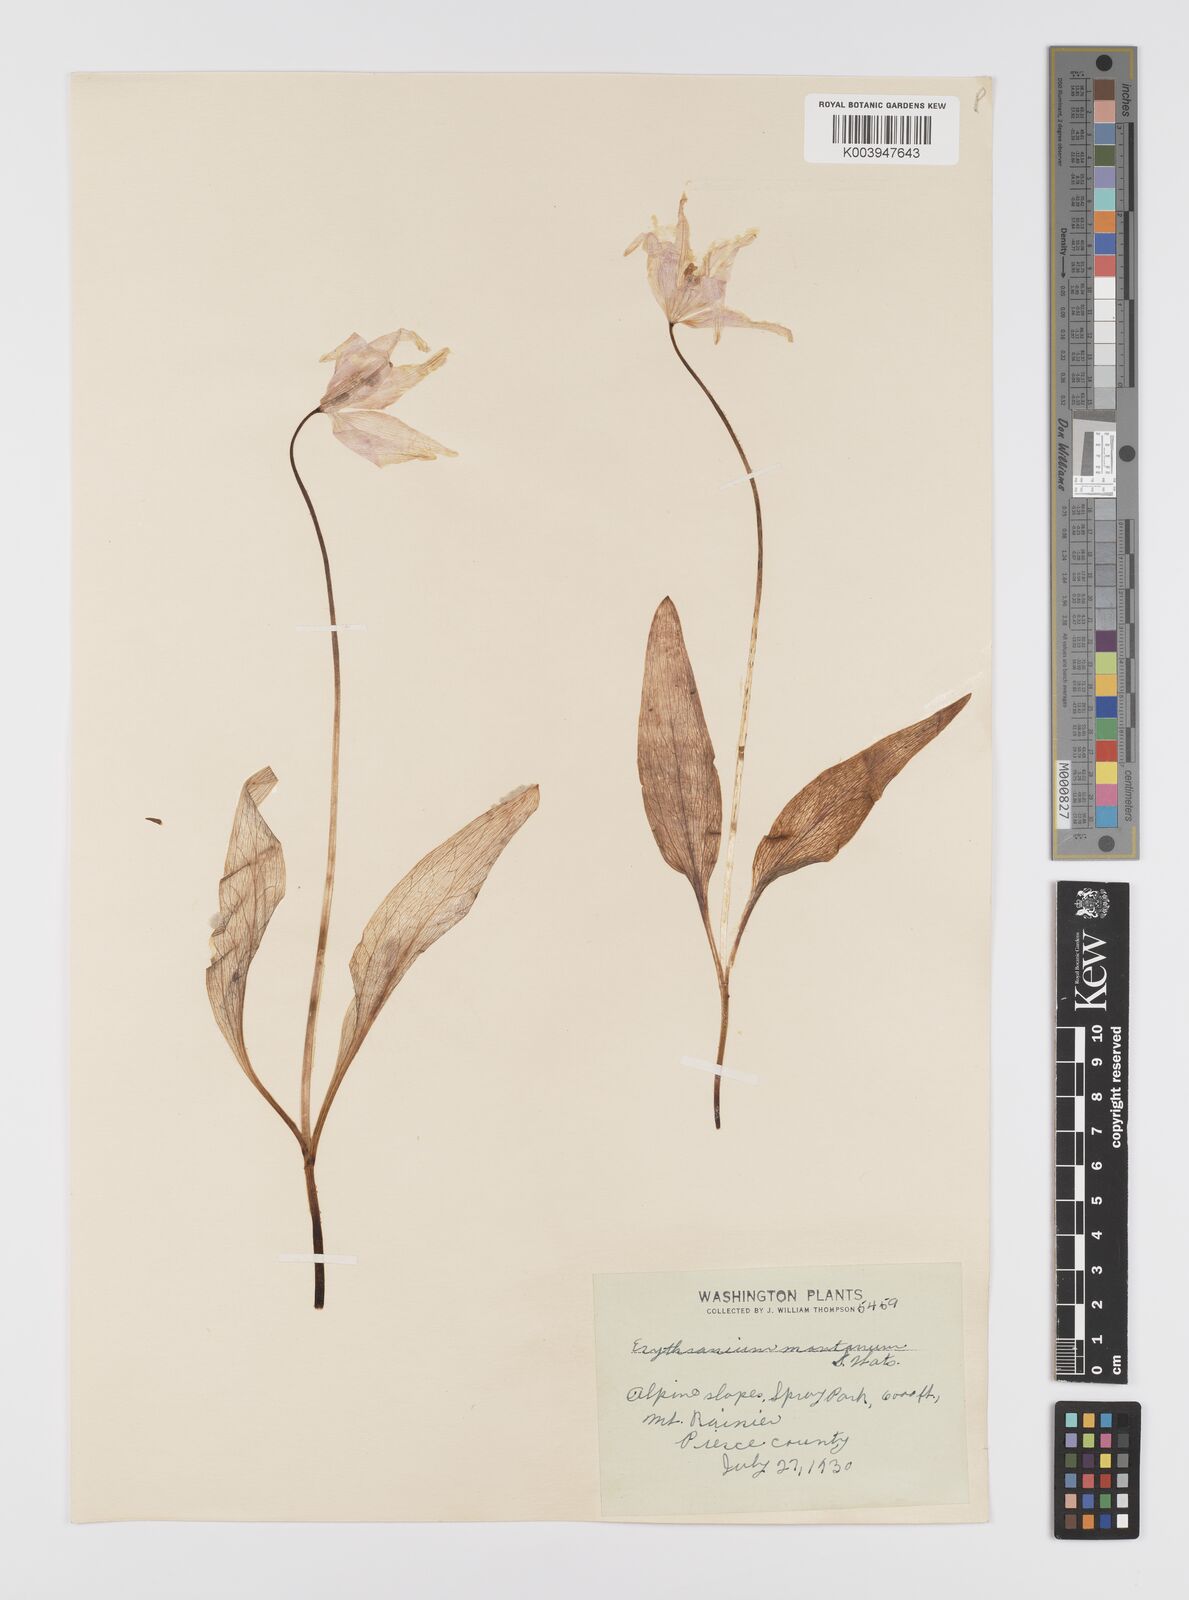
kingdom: Plantae
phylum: Tracheophyta
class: Liliopsida
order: Liliales
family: Liliaceae
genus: Erythronium
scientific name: Erythronium montanum
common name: Avalanche lily
